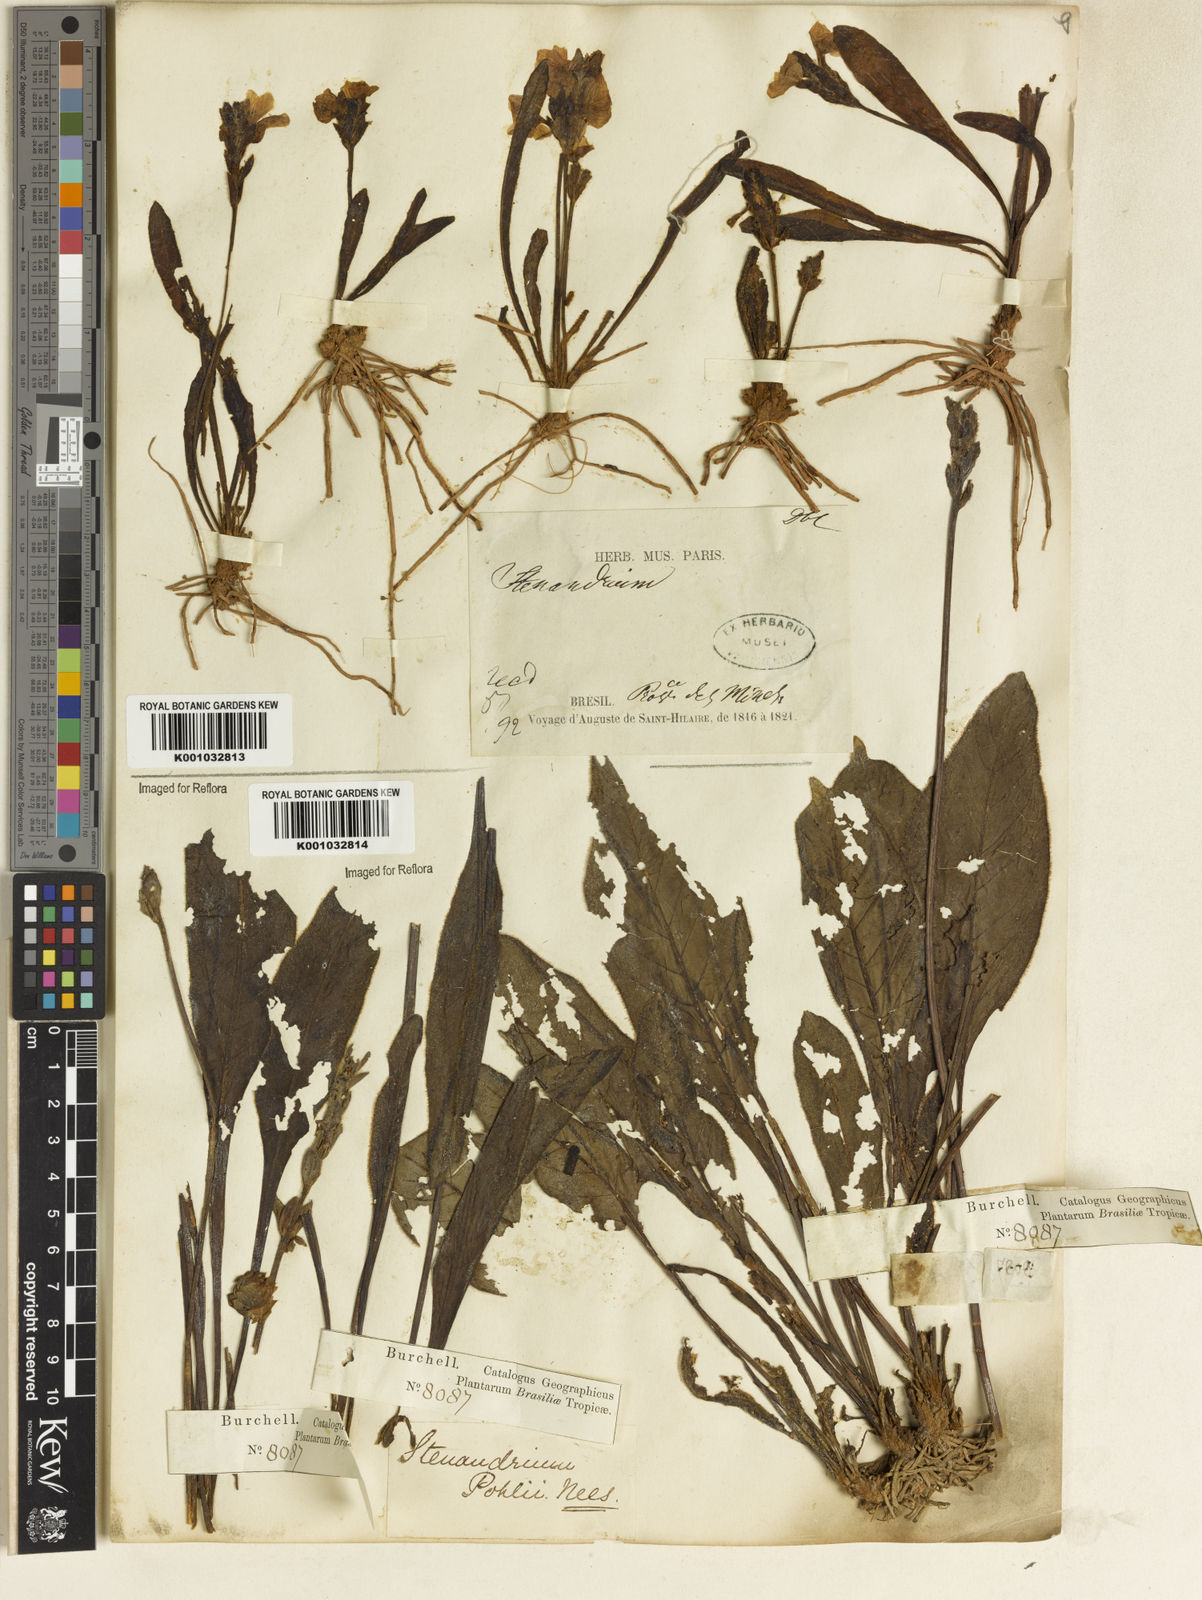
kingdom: Plantae
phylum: Tracheophyta
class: Magnoliopsida
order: Lamiales
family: Acanthaceae
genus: Stenandrium
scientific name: Stenandrium pohlii
